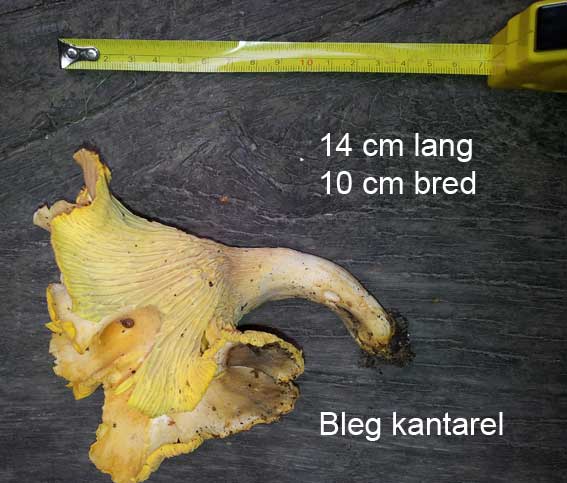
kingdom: Fungi
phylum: Basidiomycota
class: Agaricomycetes
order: Cantharellales
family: Hydnaceae
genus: Cantharellus
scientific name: Cantharellus pallens
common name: bleg kantarel
